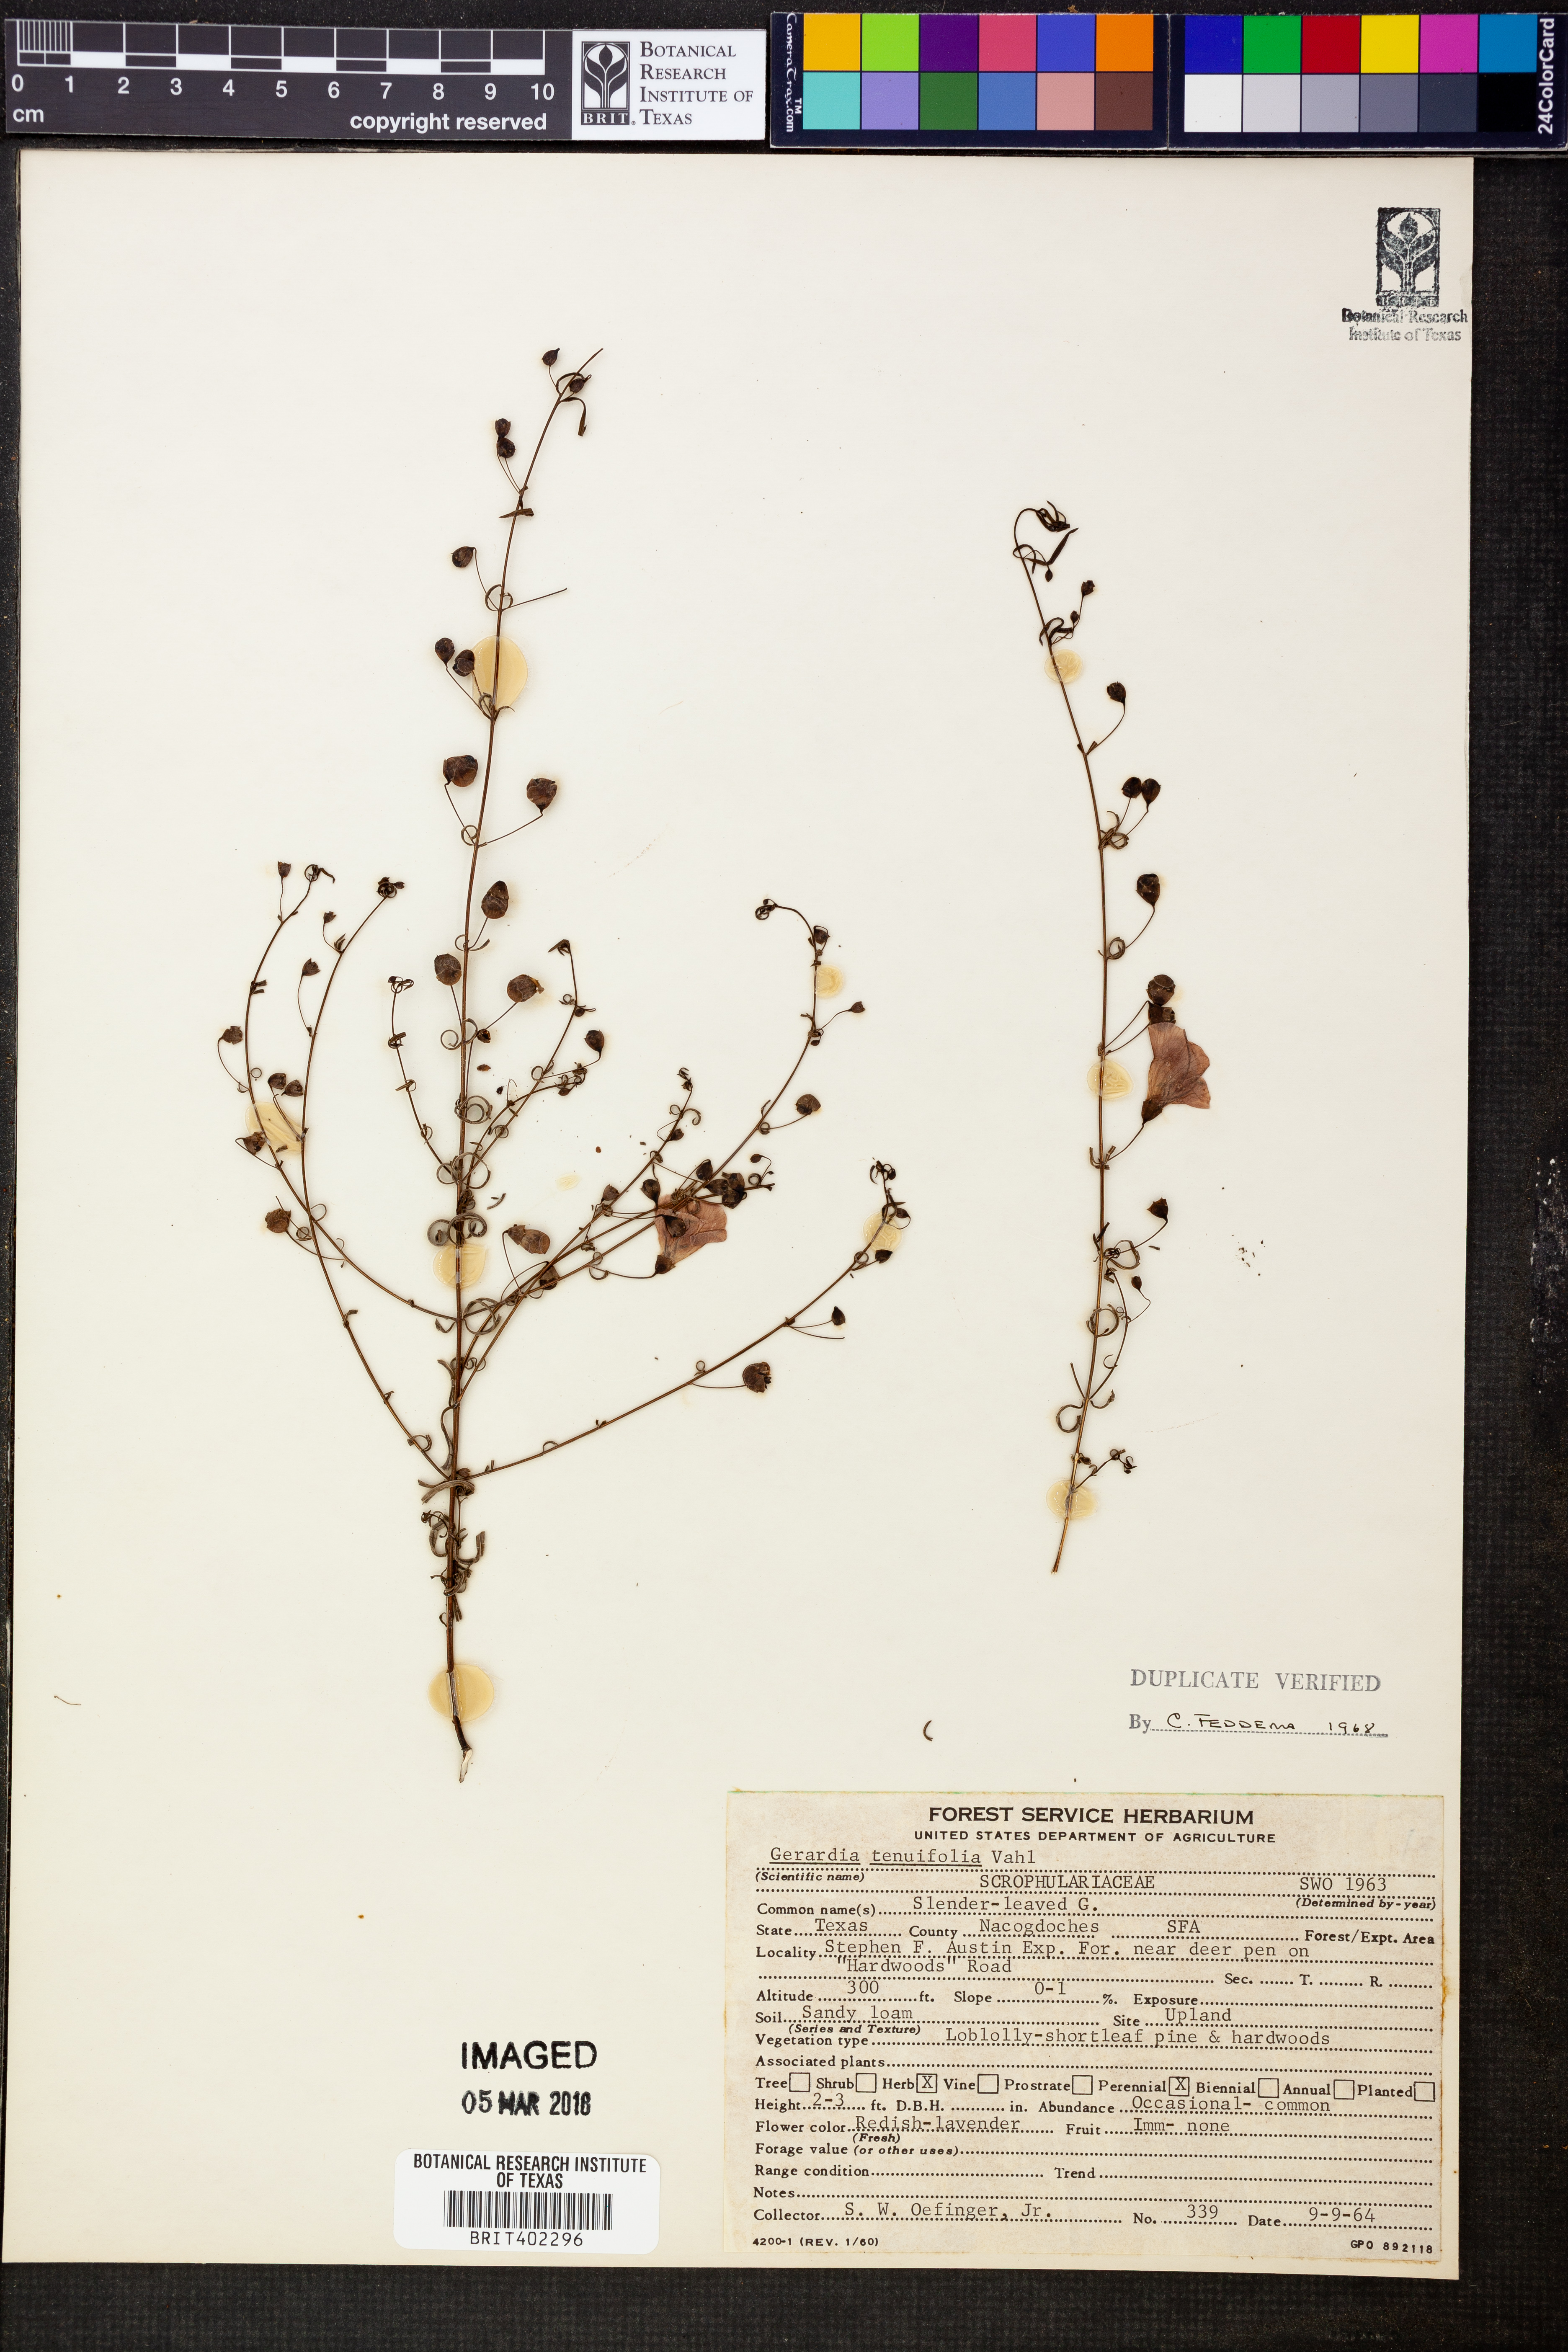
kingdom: Plantae
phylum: Tracheophyta
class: Magnoliopsida
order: Lamiales
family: Orobanchaceae
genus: Agalinis
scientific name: Agalinis tenuifolia
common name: Slender agalinis
